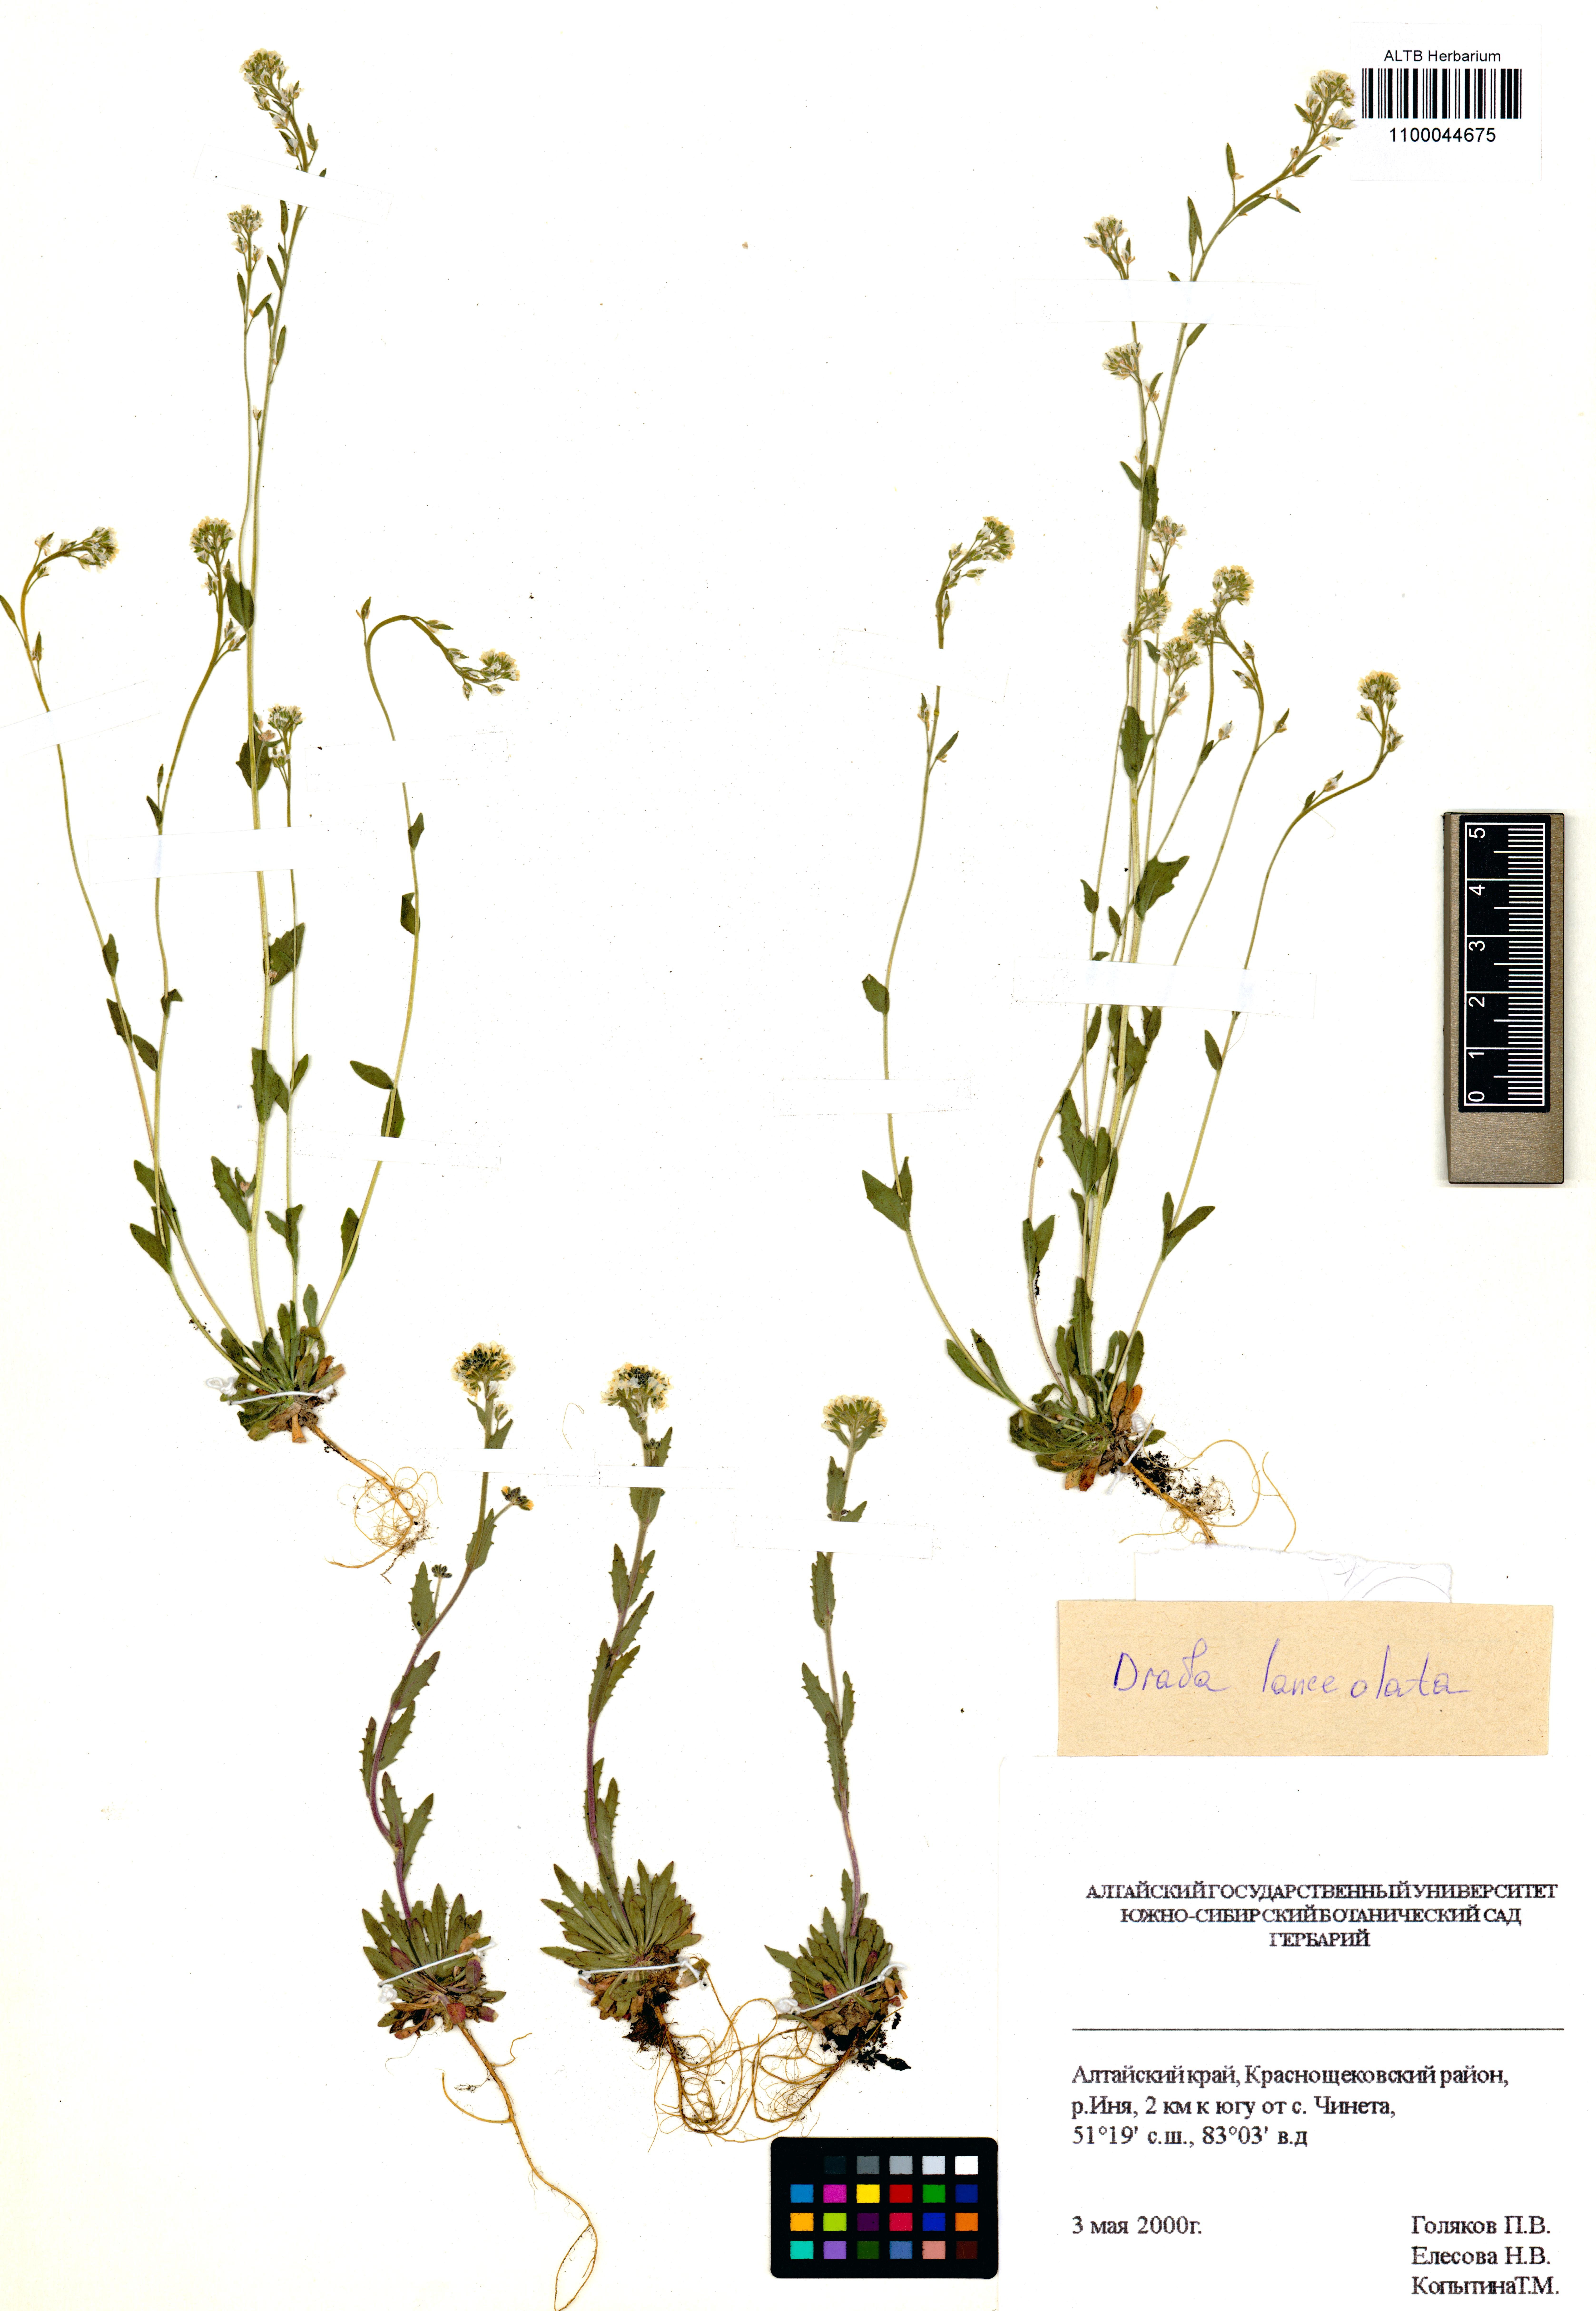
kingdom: Plantae
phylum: Tracheophyta
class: Magnoliopsida
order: Brassicales
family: Brassicaceae
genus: Draba
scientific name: Draba lanceolata
